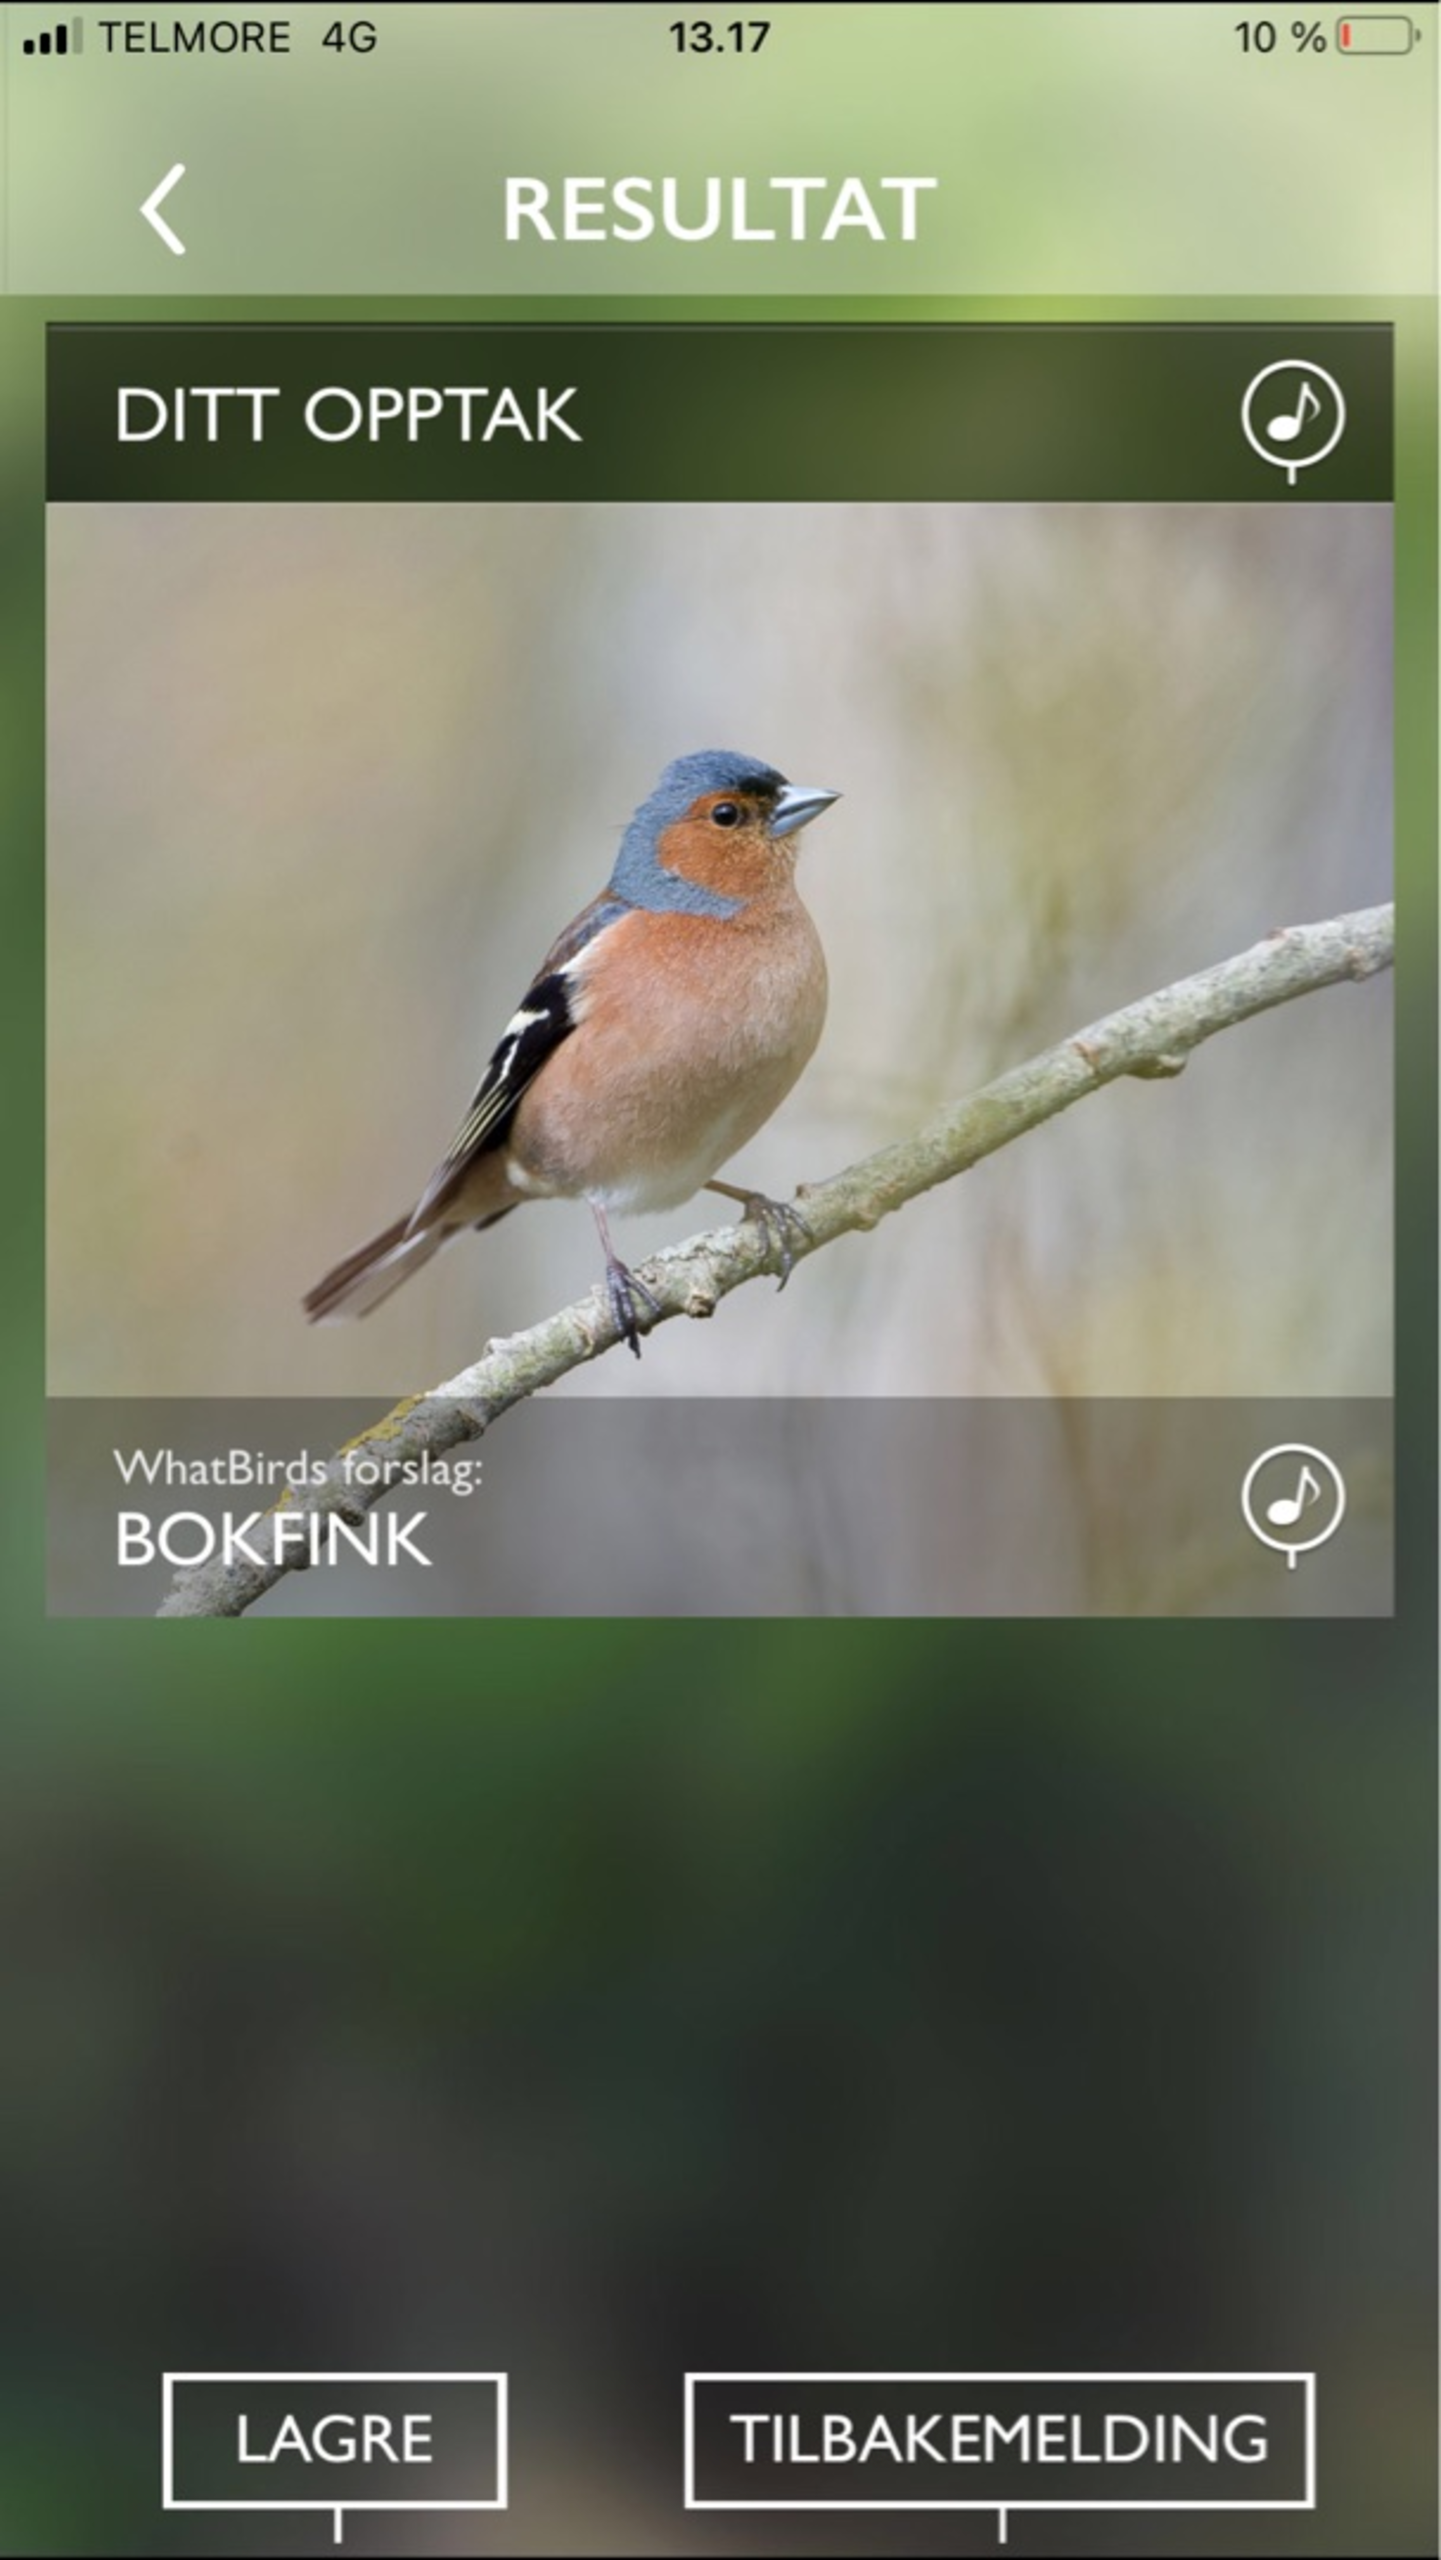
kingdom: Animalia
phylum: Chordata
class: Aves
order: Passeriformes
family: Fringillidae
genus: Fringilla
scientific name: Fringilla coelebs
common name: Bogfinke
